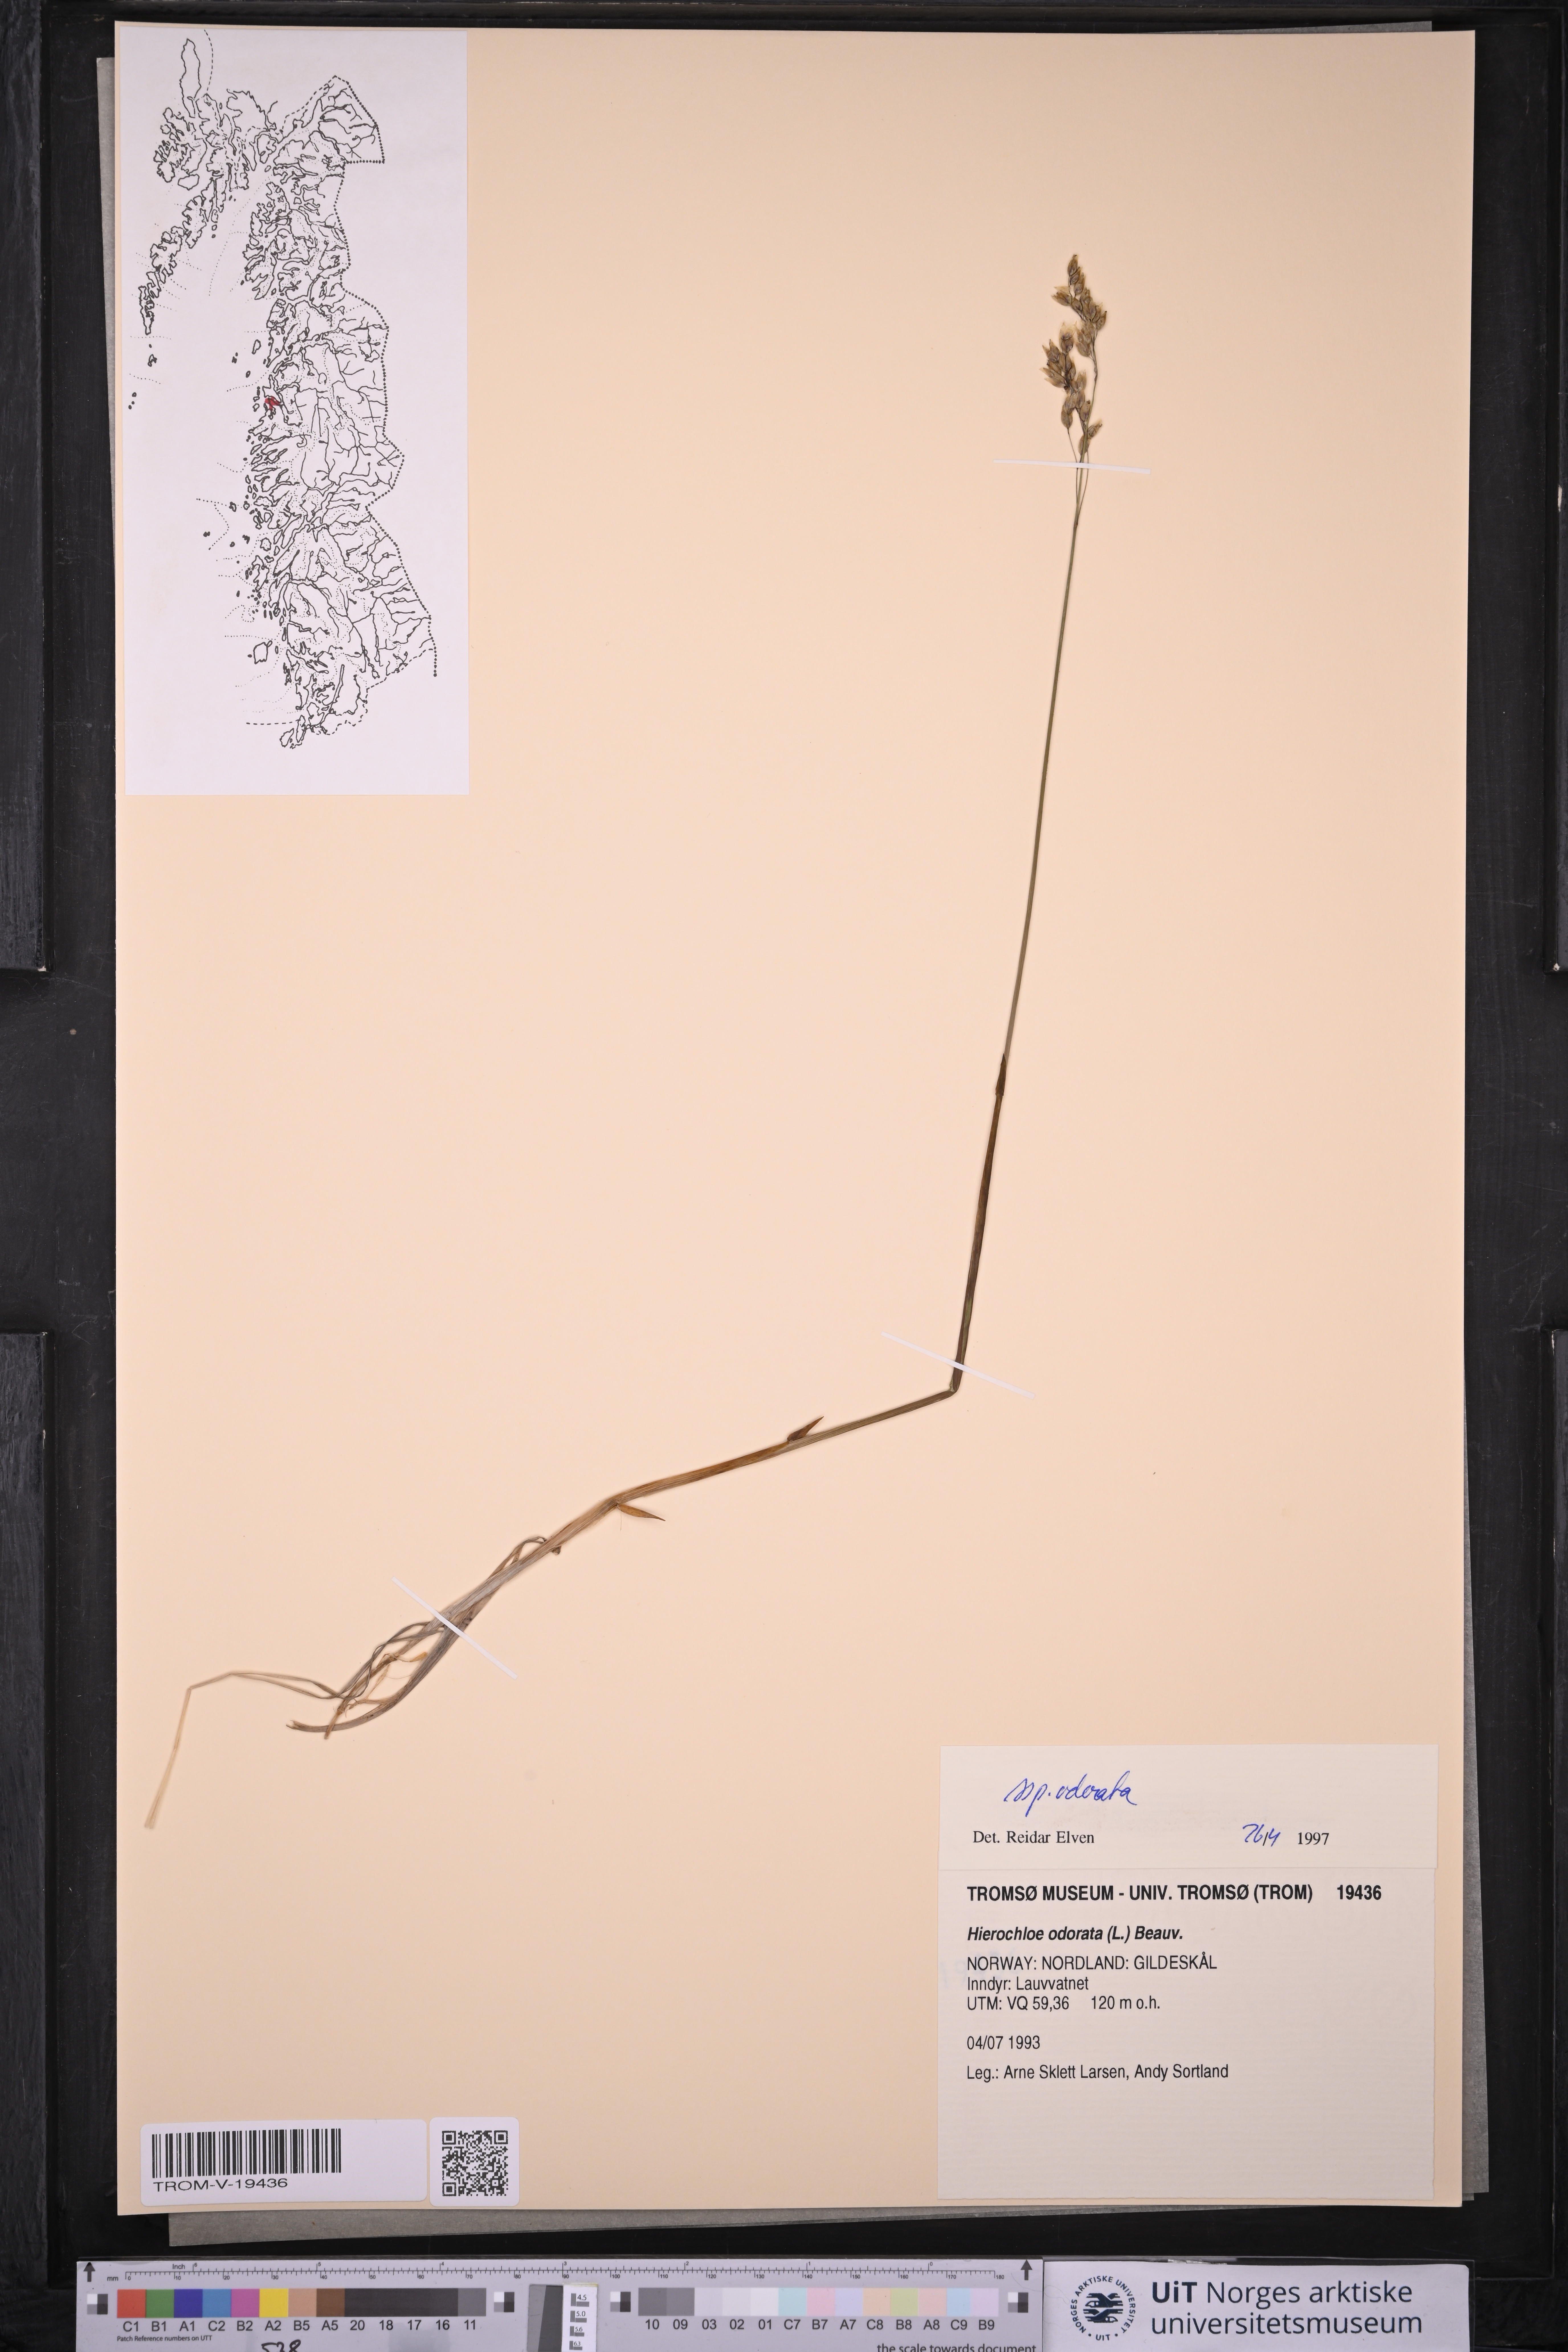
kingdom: Plantae
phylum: Tracheophyta
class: Liliopsida
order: Poales
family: Poaceae
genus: Anthoxanthum
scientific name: Anthoxanthum nitens
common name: Holy grass
